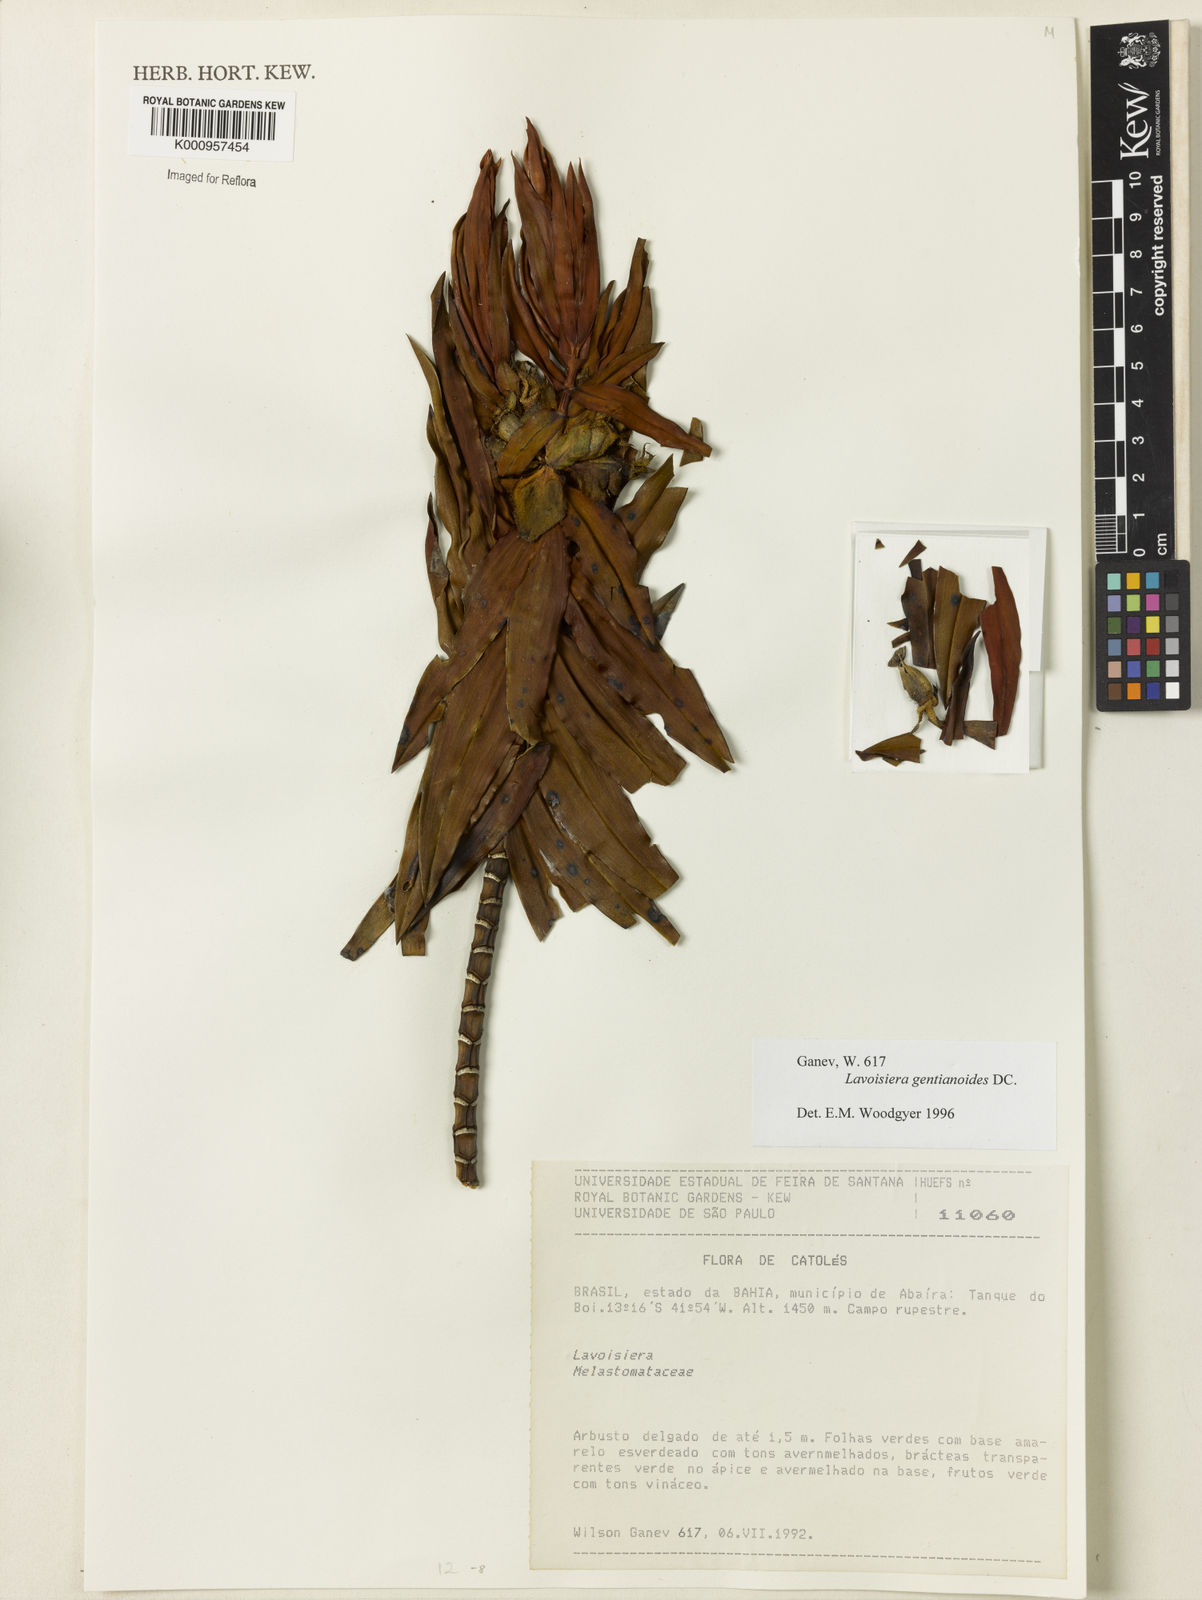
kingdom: Plantae
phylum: Tracheophyta
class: Magnoliopsida
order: Myrtales
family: Melastomataceae
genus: Microlicia
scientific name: Microlicia gentianoides
